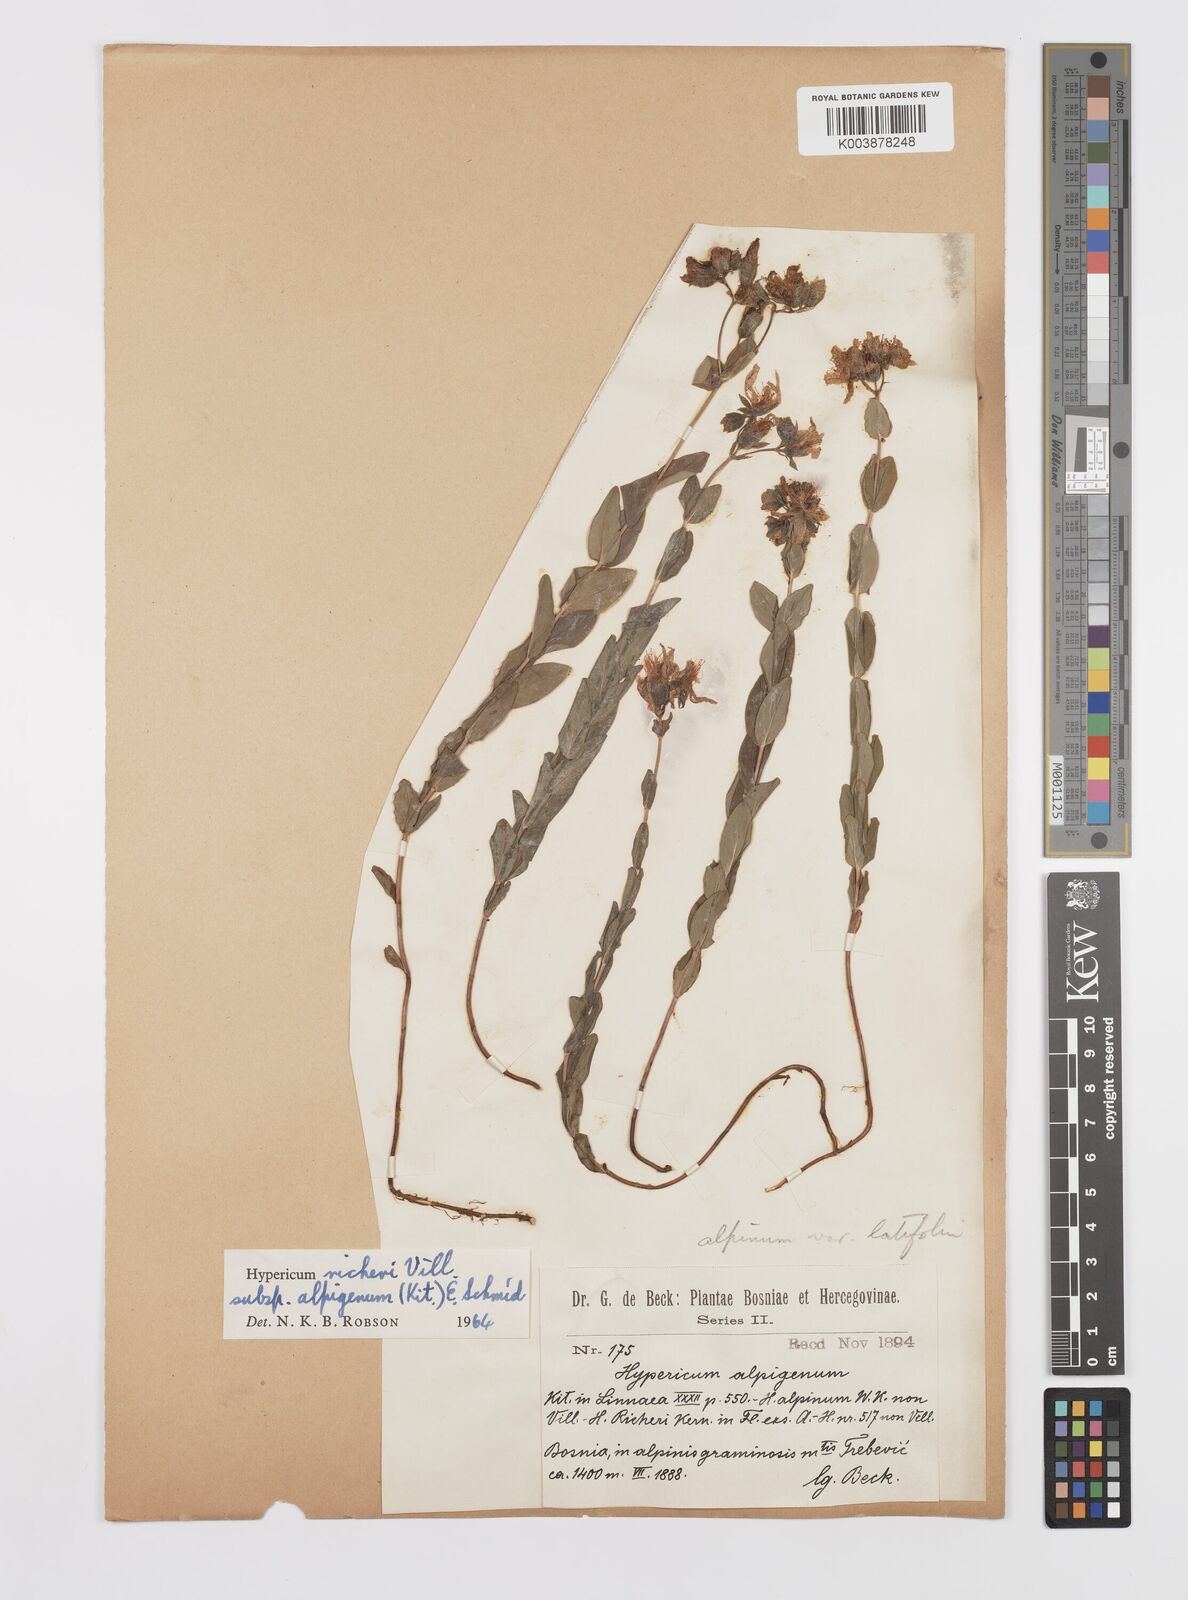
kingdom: Plantae
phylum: Tracheophyta
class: Magnoliopsida
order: Malpighiales
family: Hypericaceae
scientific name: Hypericaceae
